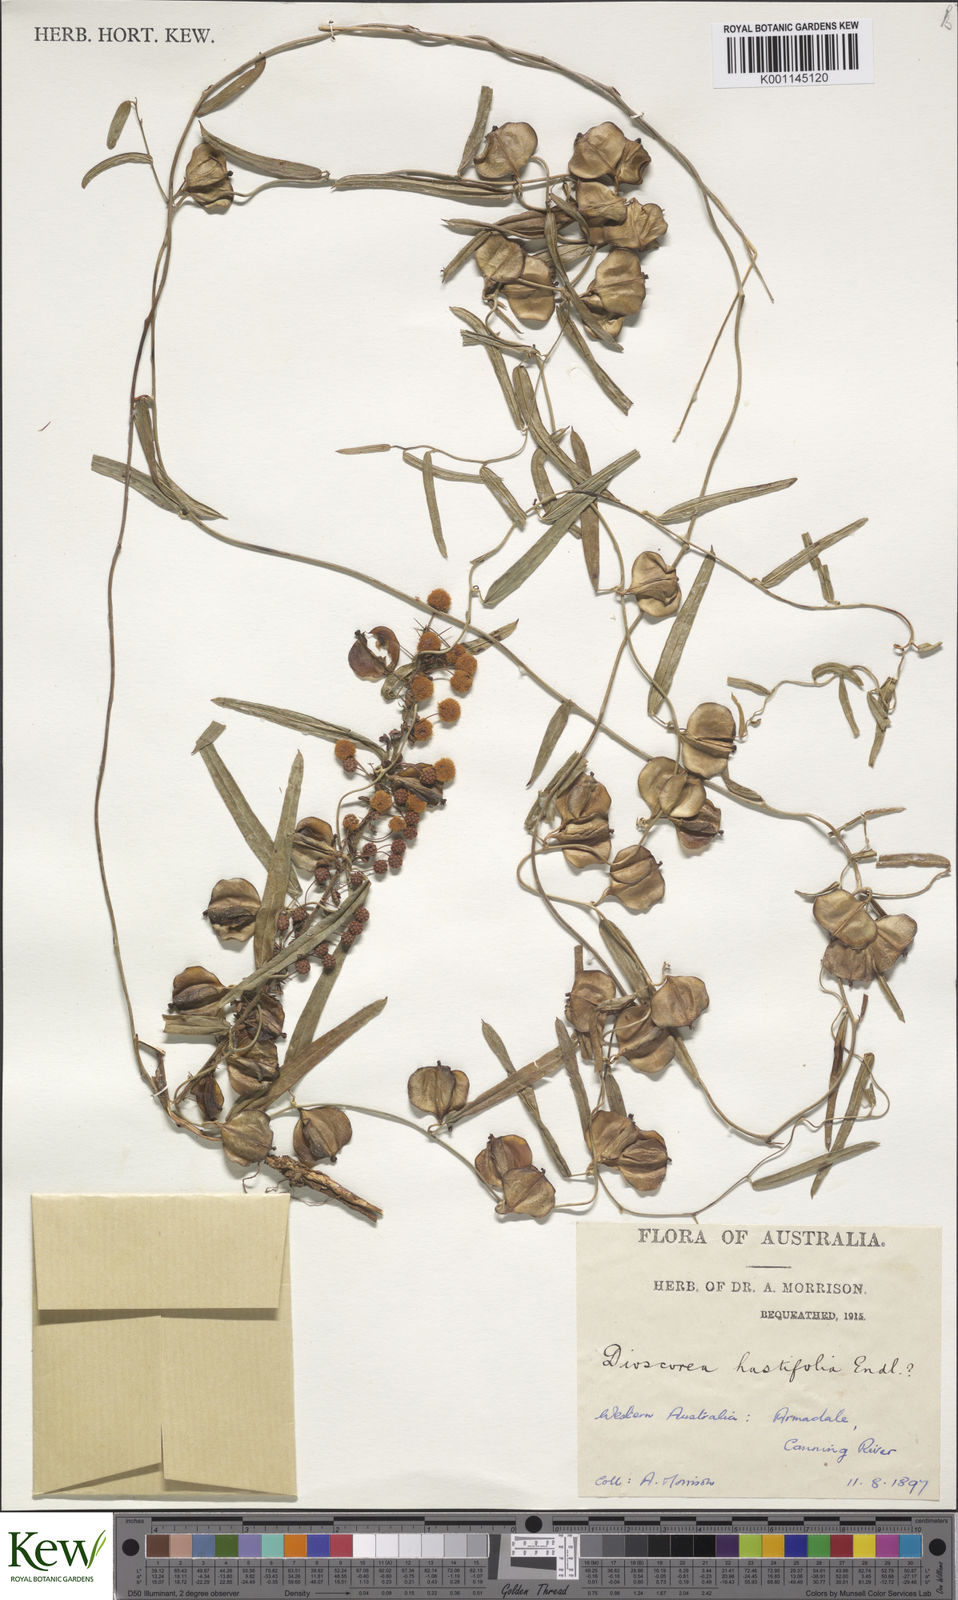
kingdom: Plantae
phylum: Tracheophyta
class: Liliopsida
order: Dioscoreales
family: Dioscoreaceae
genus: Dioscorea
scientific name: Dioscorea hastifolia
